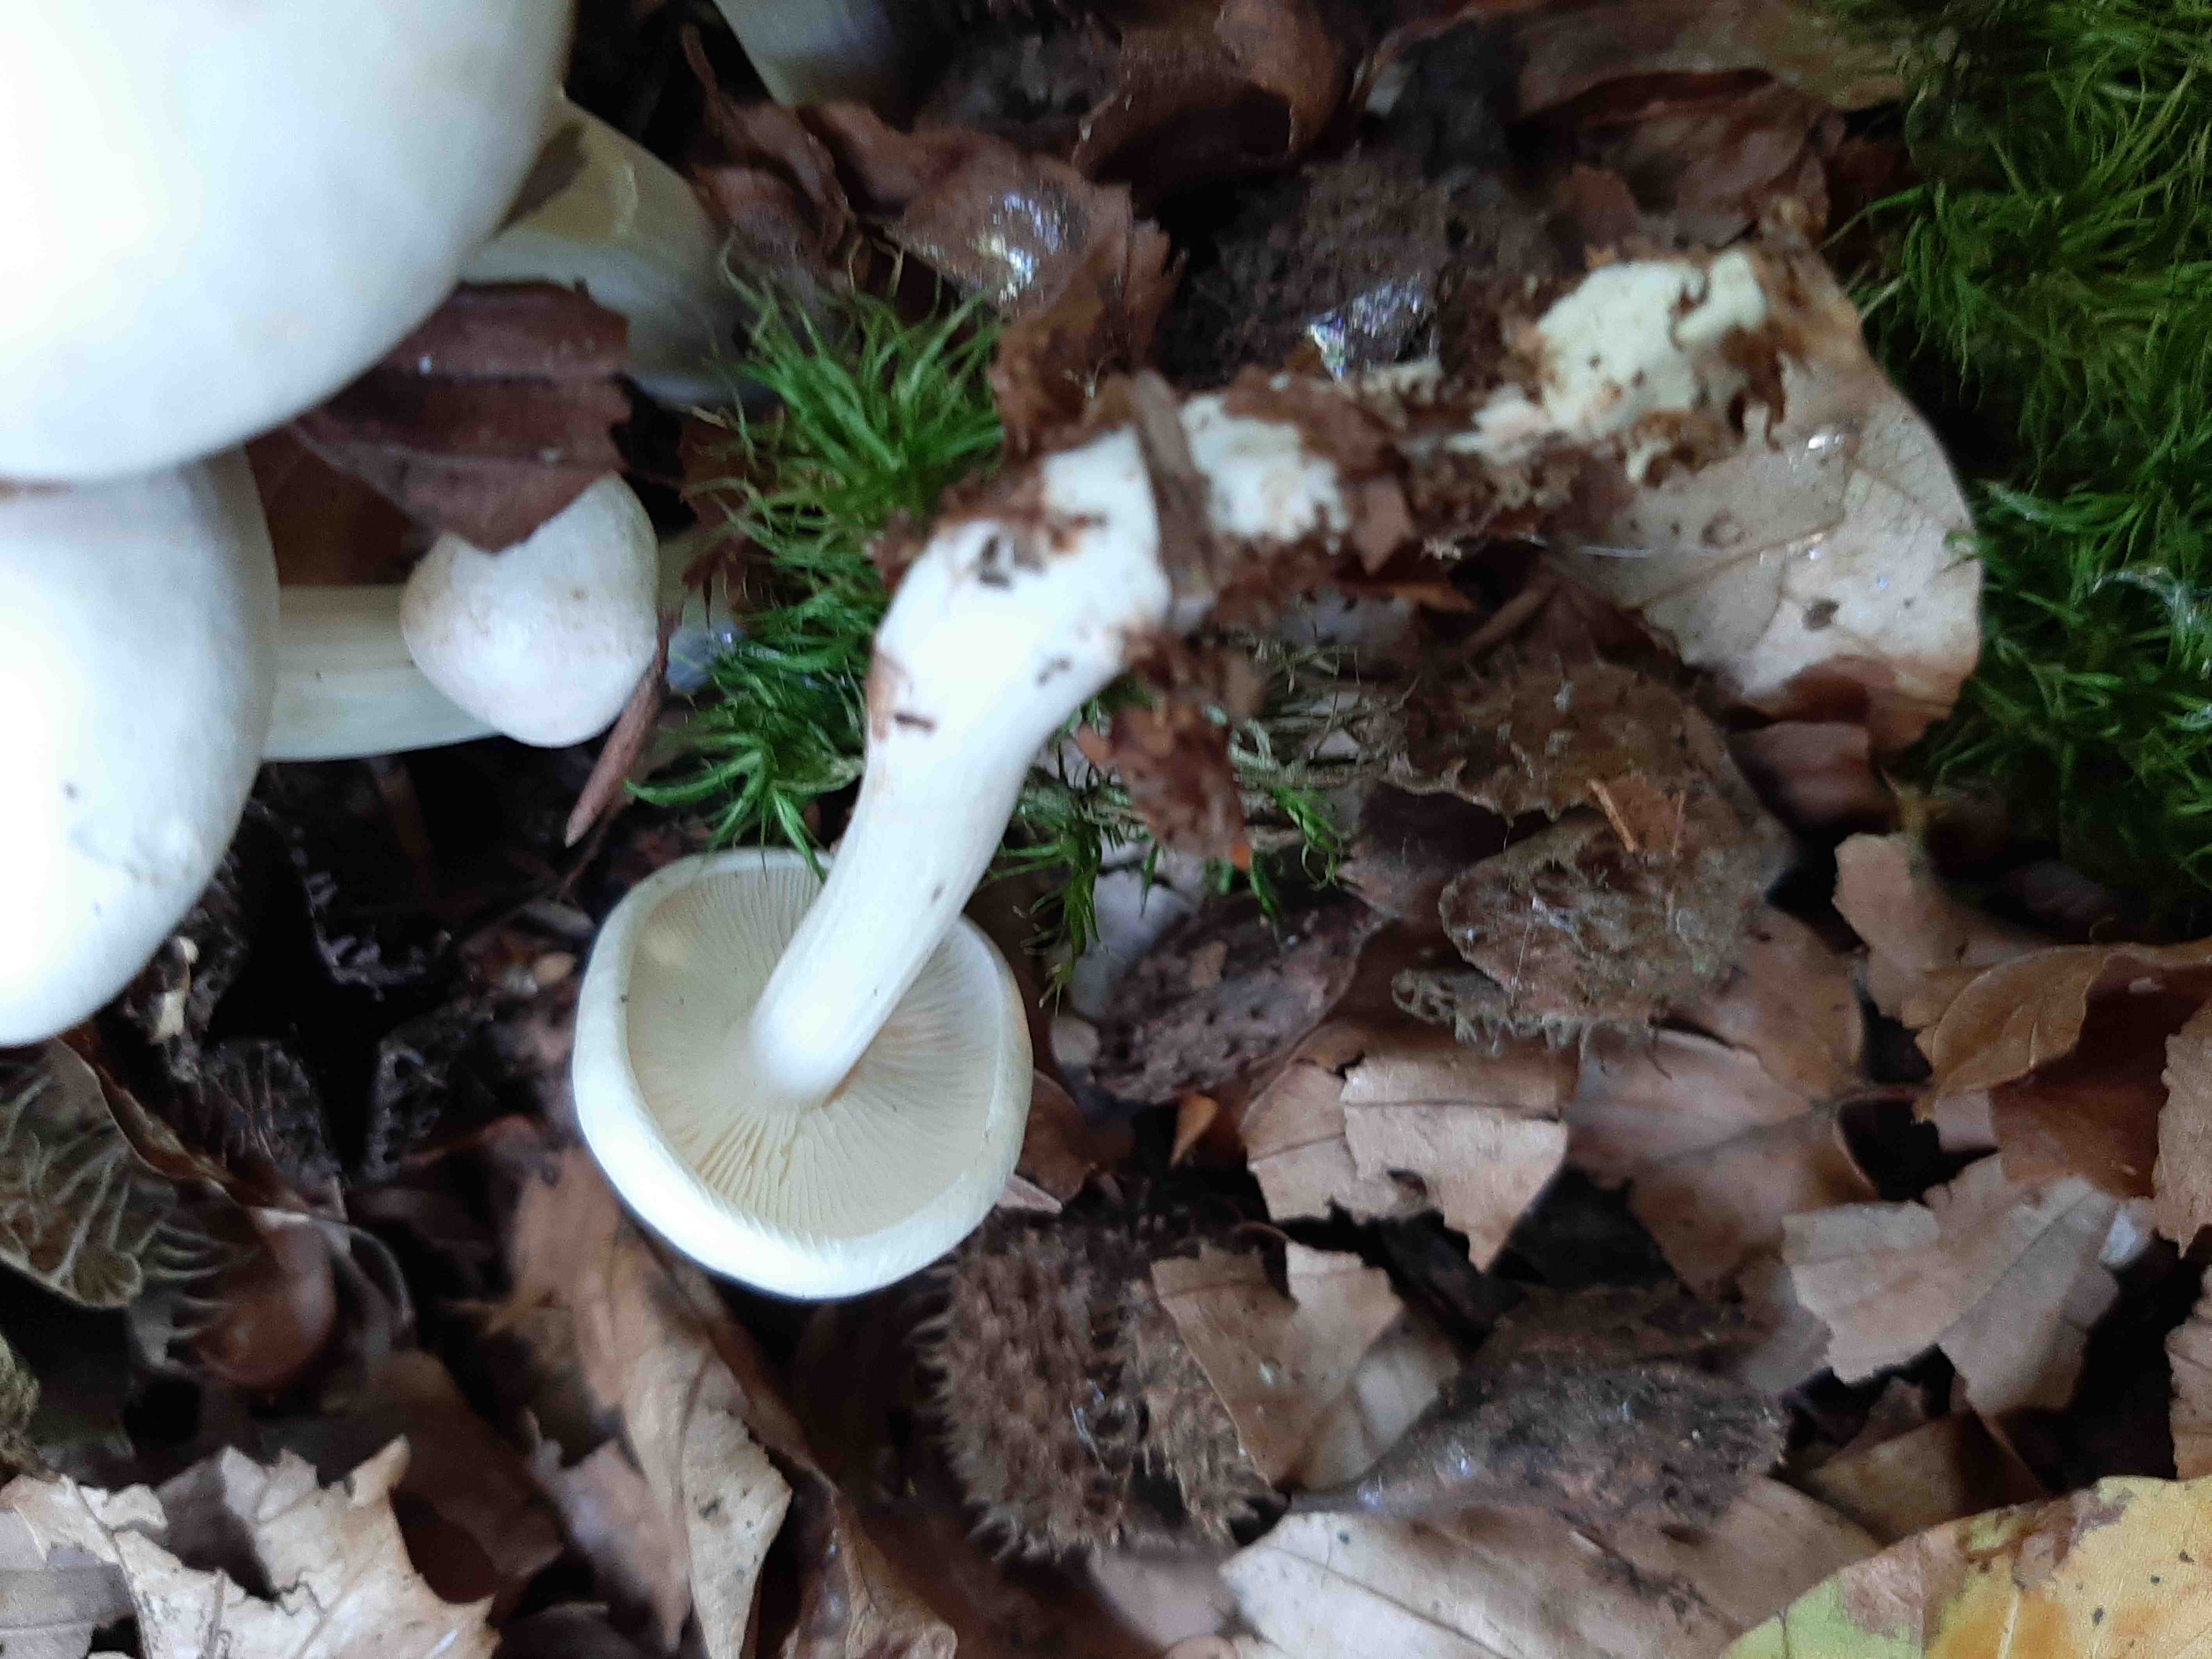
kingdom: Fungi
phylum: Basidiomycota
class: Agaricomycetes
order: Agaricales
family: Tricholomataceae
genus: Leucocybe
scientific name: Leucocybe connata
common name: knippe-tragthat
